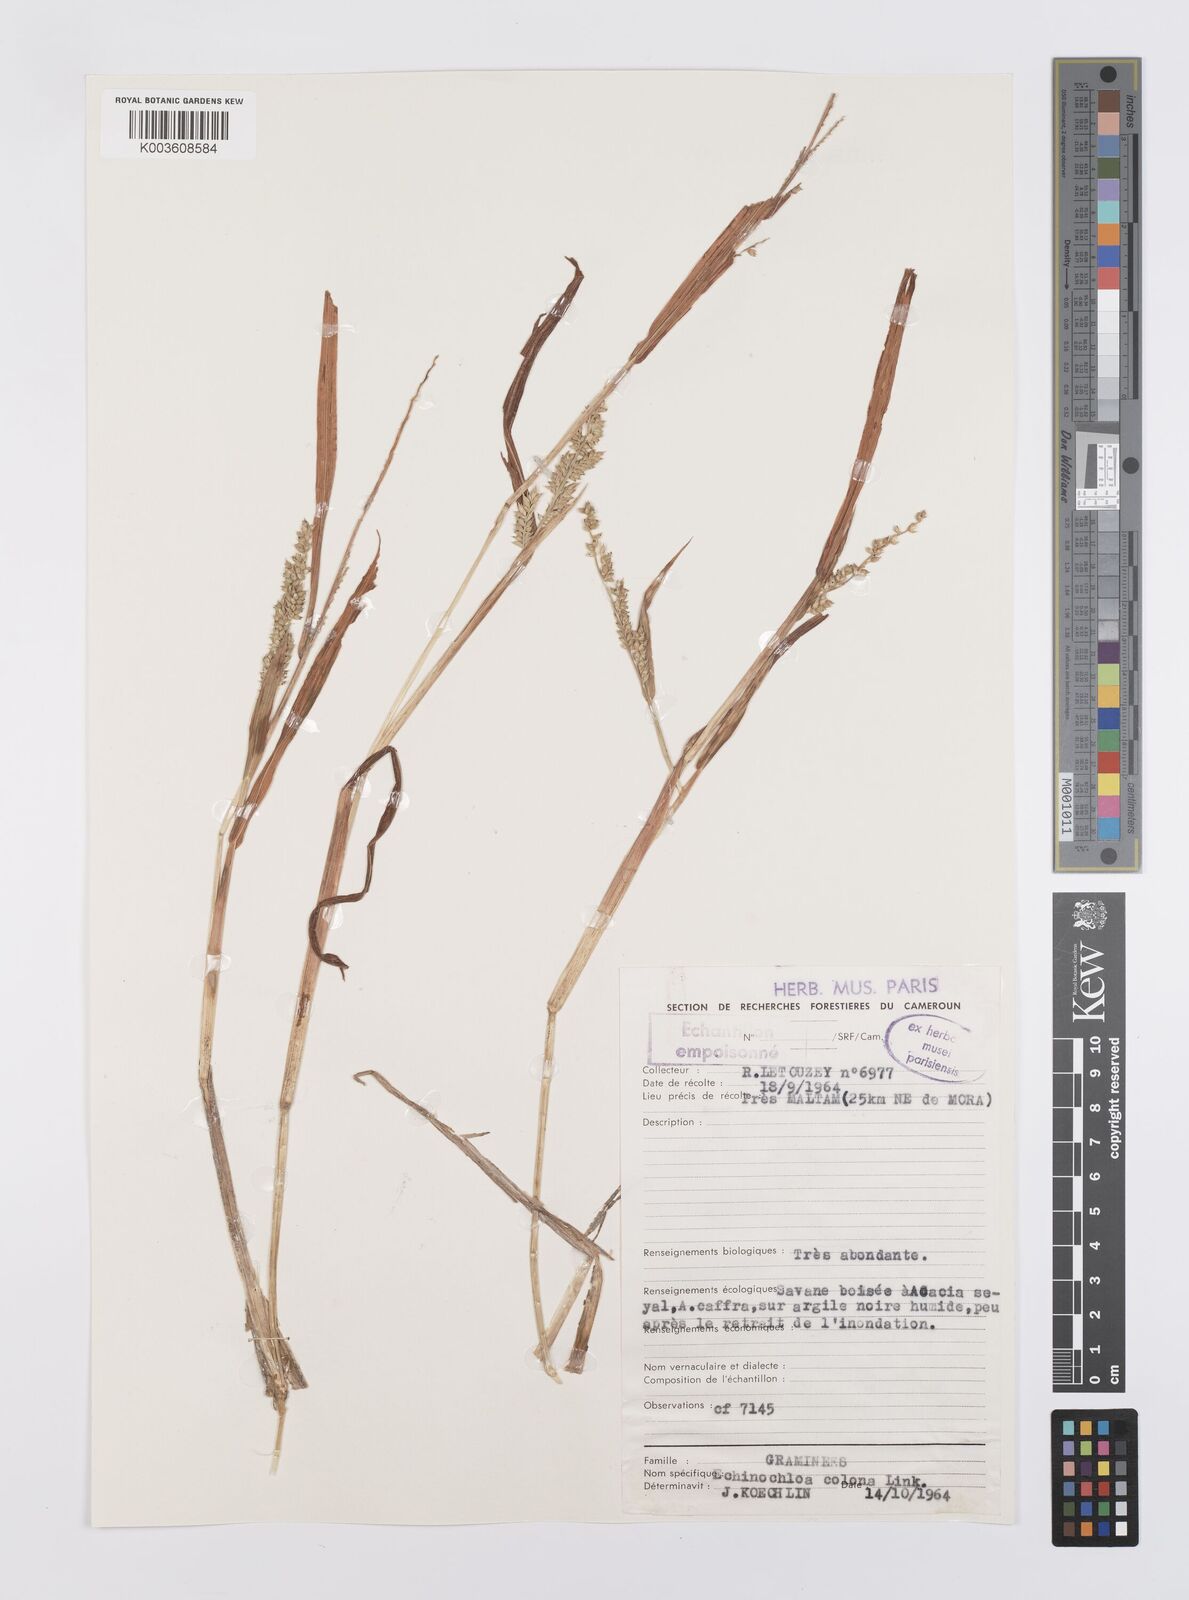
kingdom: Plantae
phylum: Tracheophyta
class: Liliopsida
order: Poales
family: Poaceae
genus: Echinochloa
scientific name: Echinochloa colonum
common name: Jungle rice
